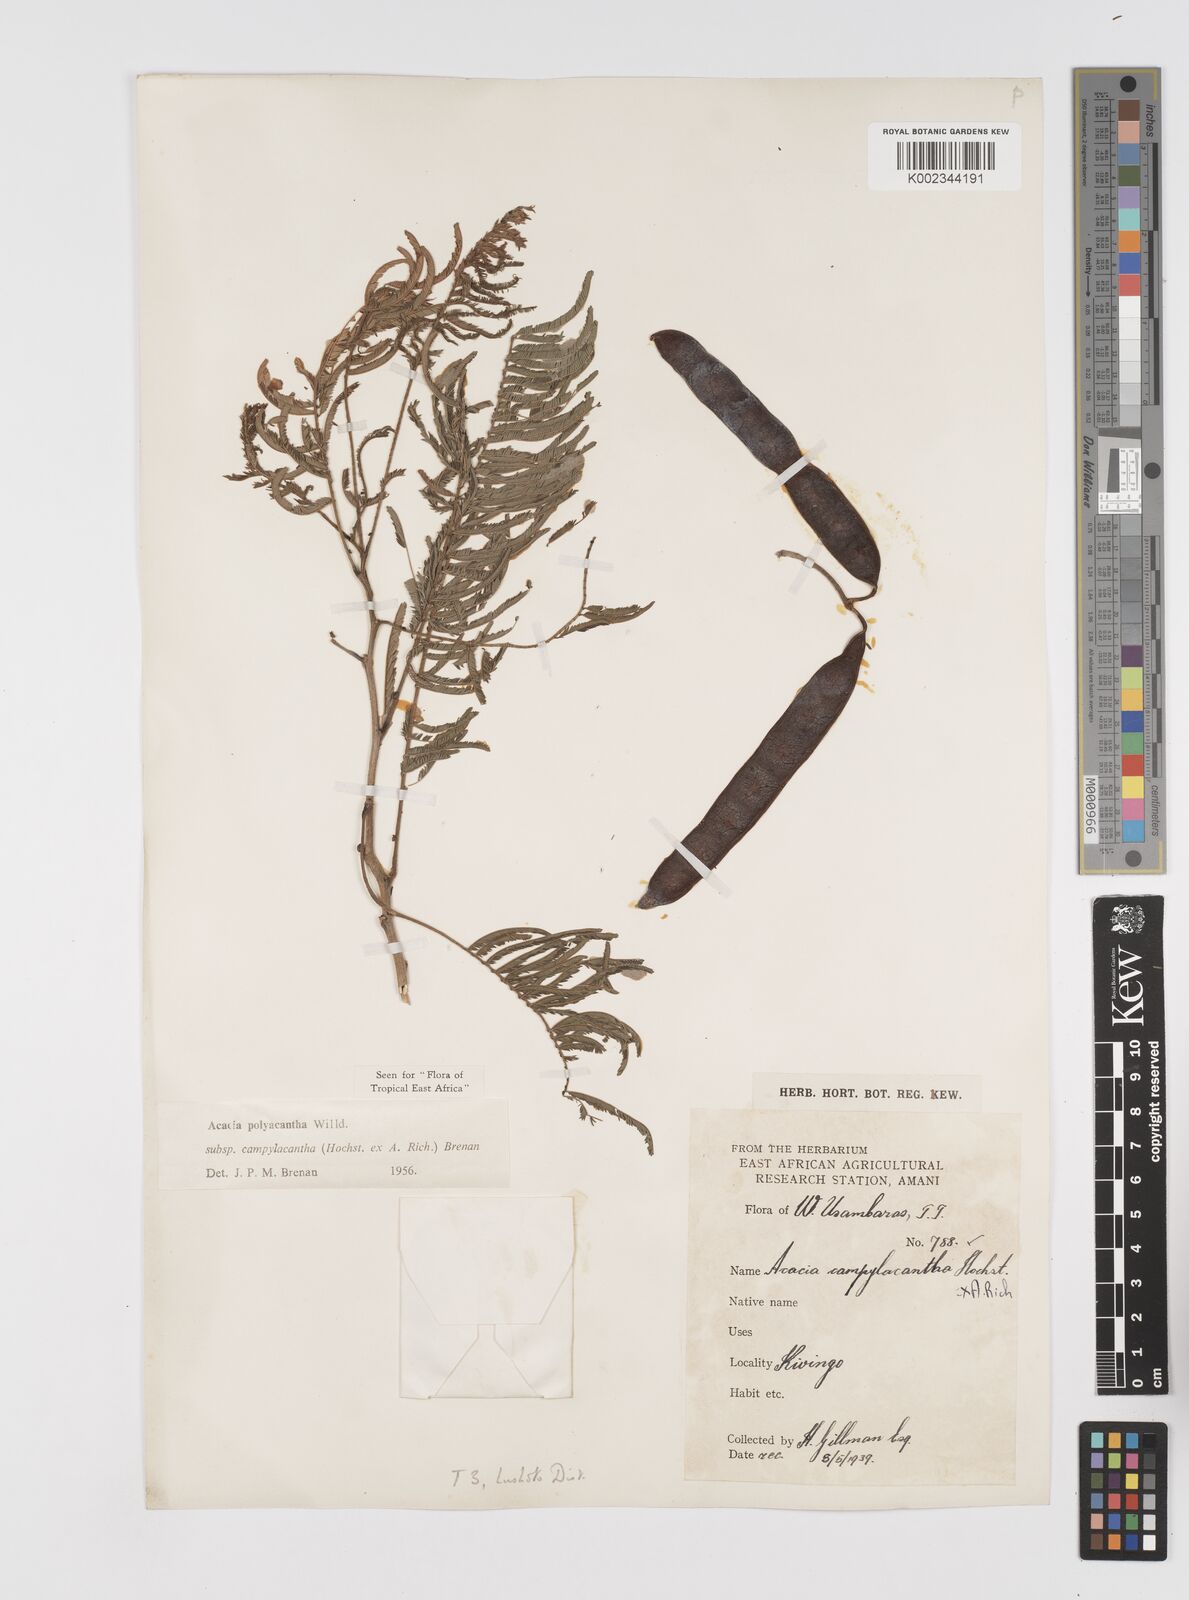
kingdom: Plantae
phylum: Tracheophyta
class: Magnoliopsida
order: Fabales
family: Fabaceae
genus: Senegalia
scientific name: Senegalia polyacantha
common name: Whitethorn
